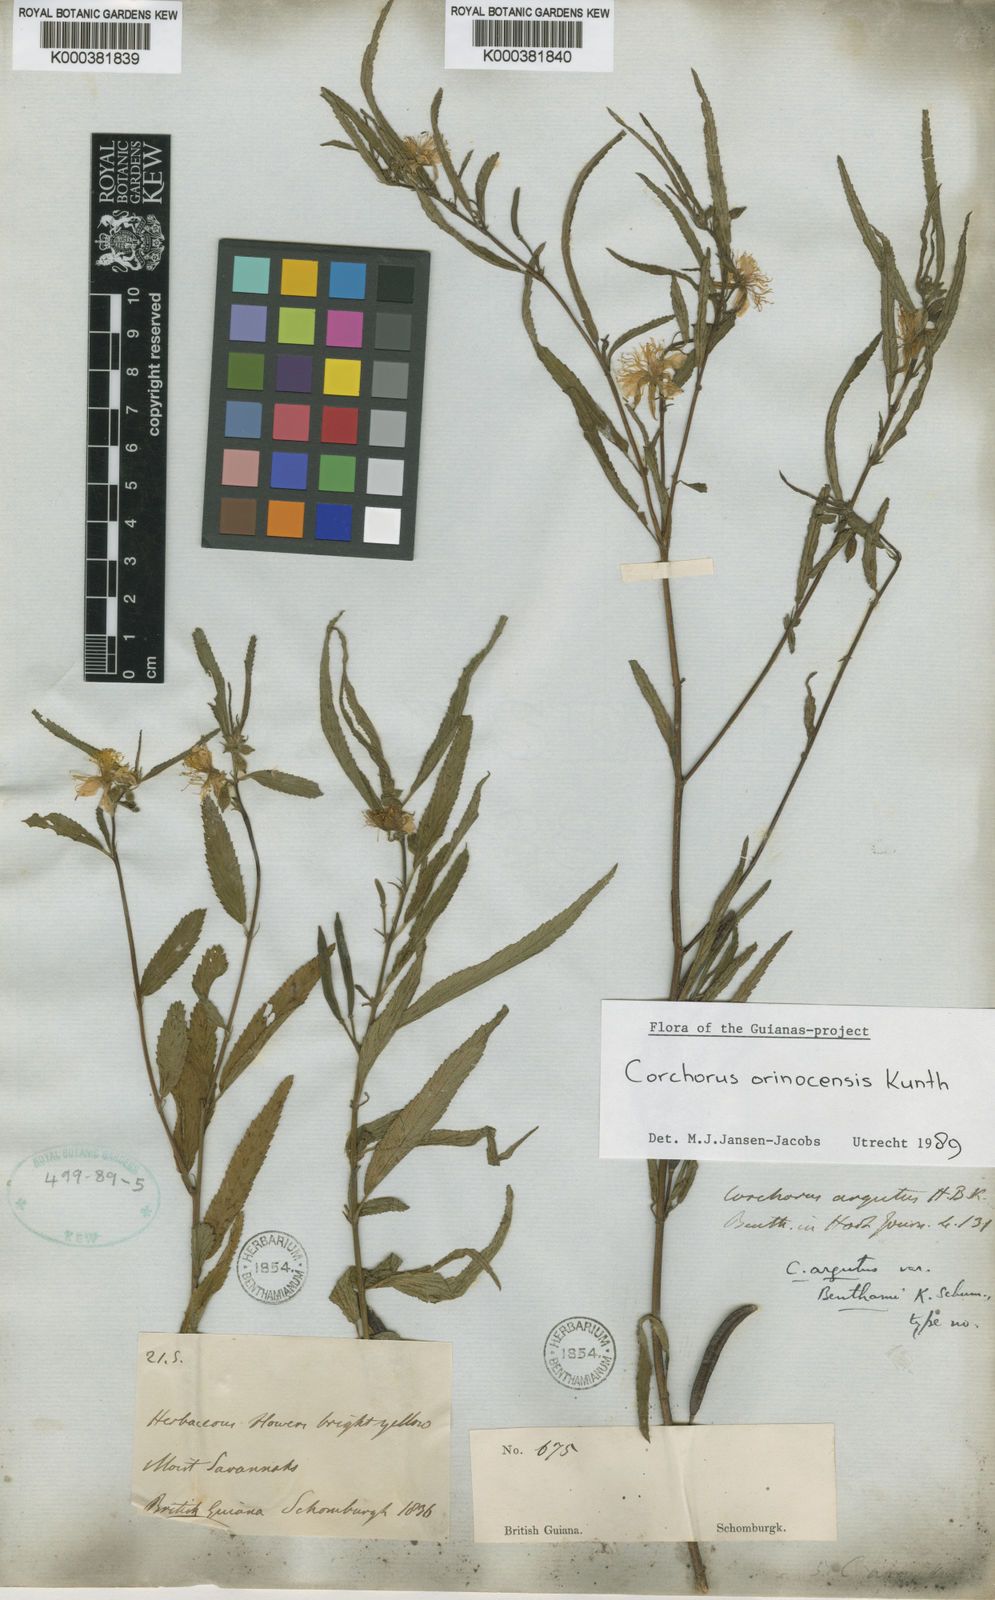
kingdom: Plantae
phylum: Tracheophyta
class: Magnoliopsida
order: Malvales
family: Malvaceae
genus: Corchorus
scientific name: Corchorus argutus
